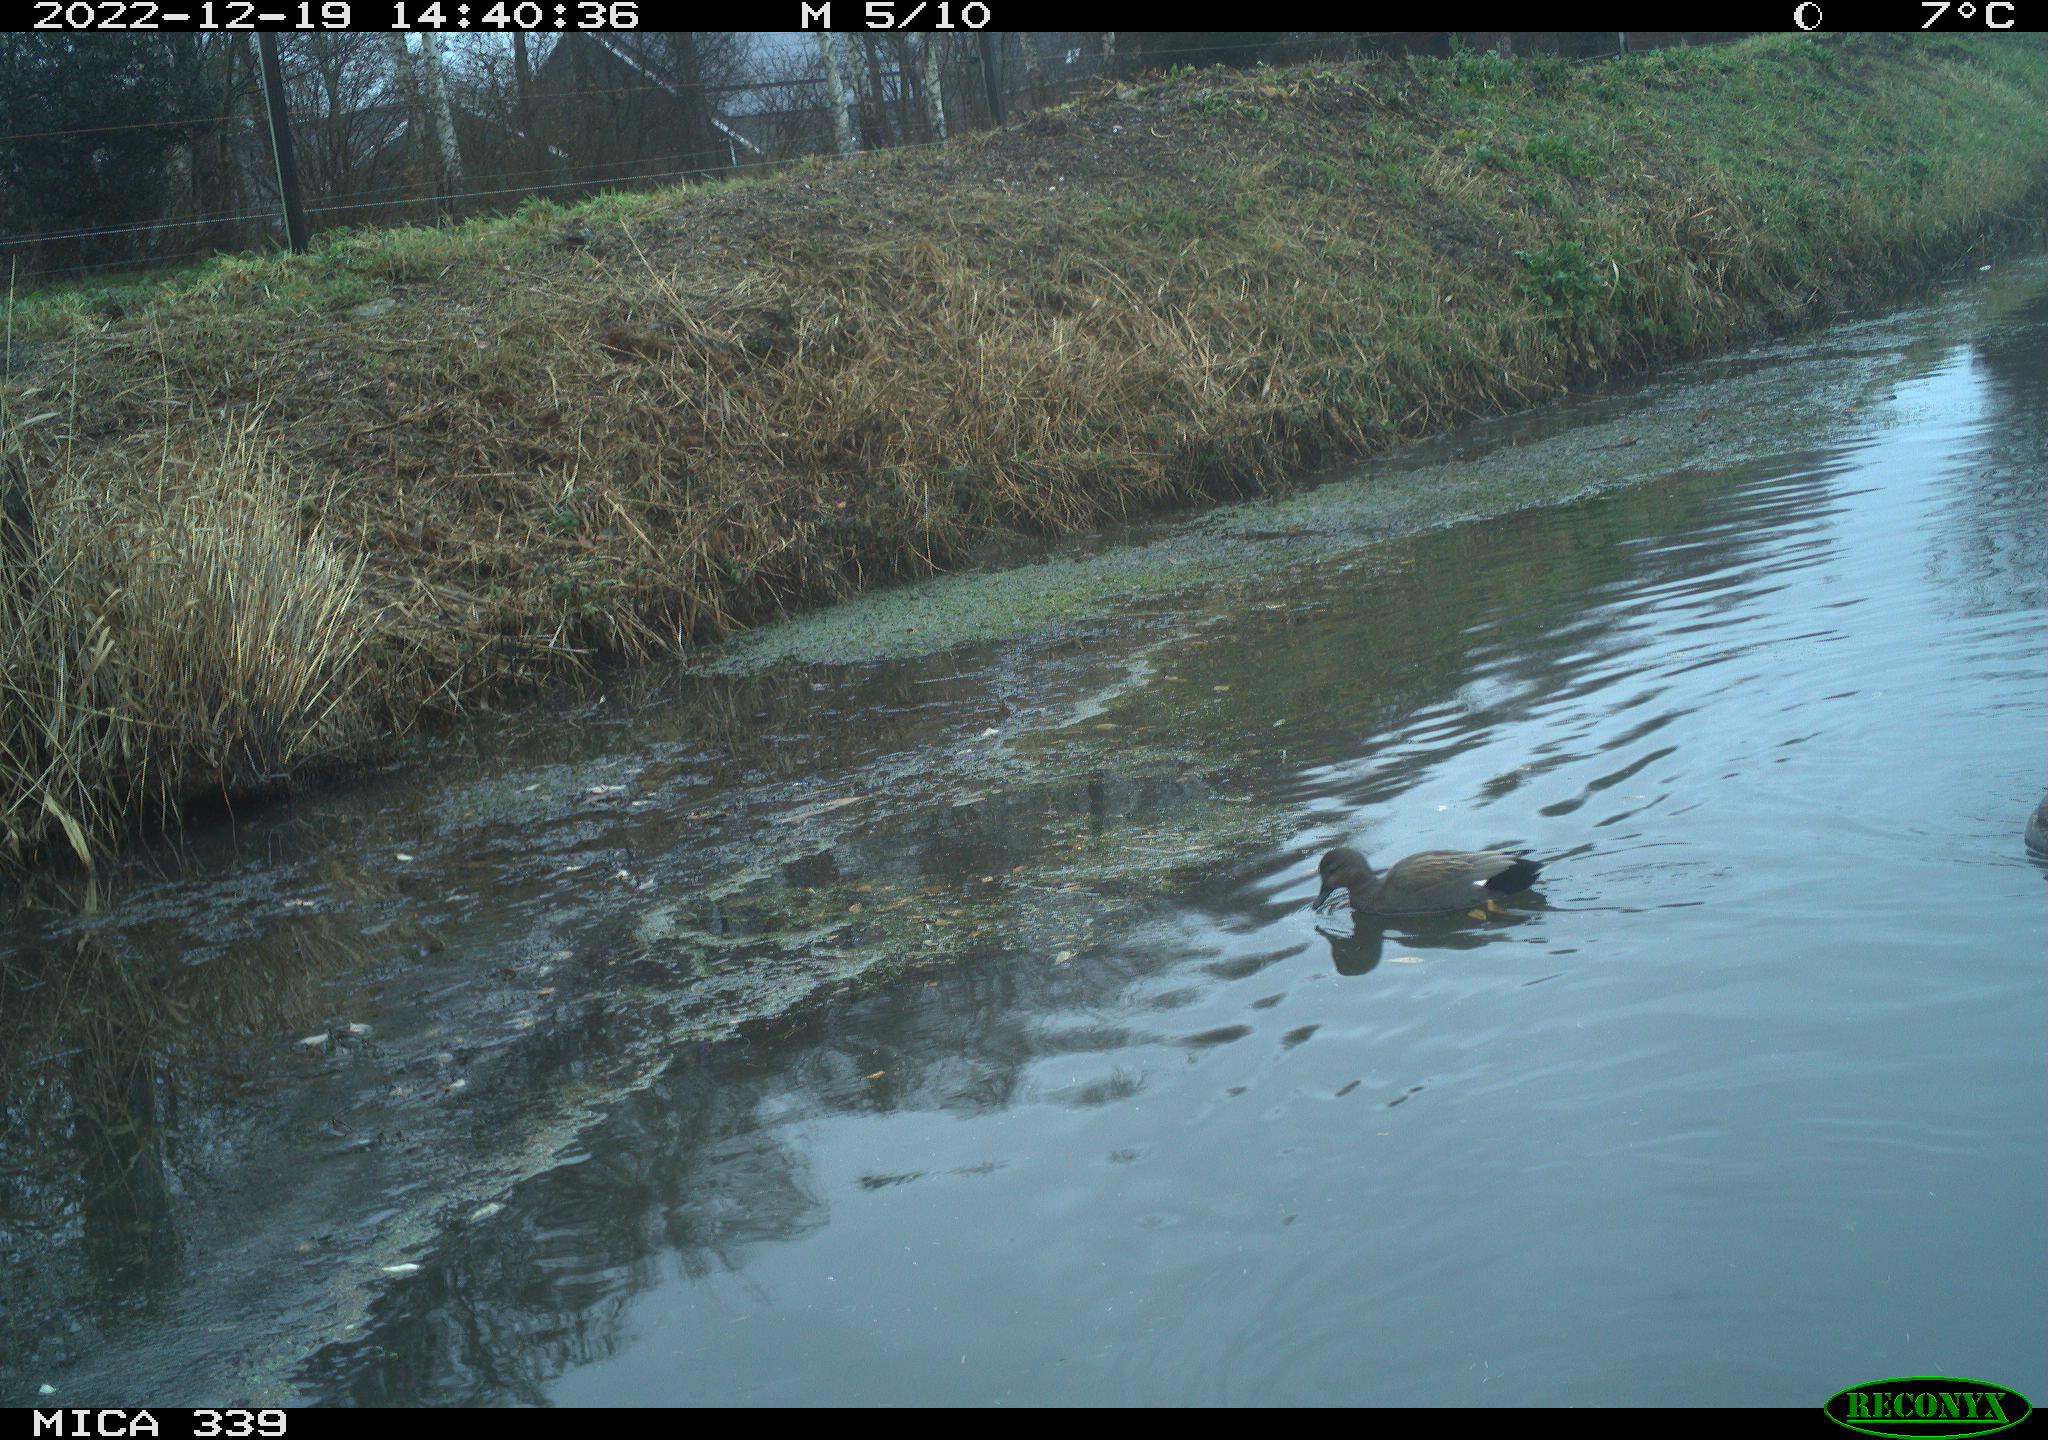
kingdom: Animalia
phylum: Chordata
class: Aves
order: Anseriformes
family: Anatidae
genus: Anas
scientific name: Anas
